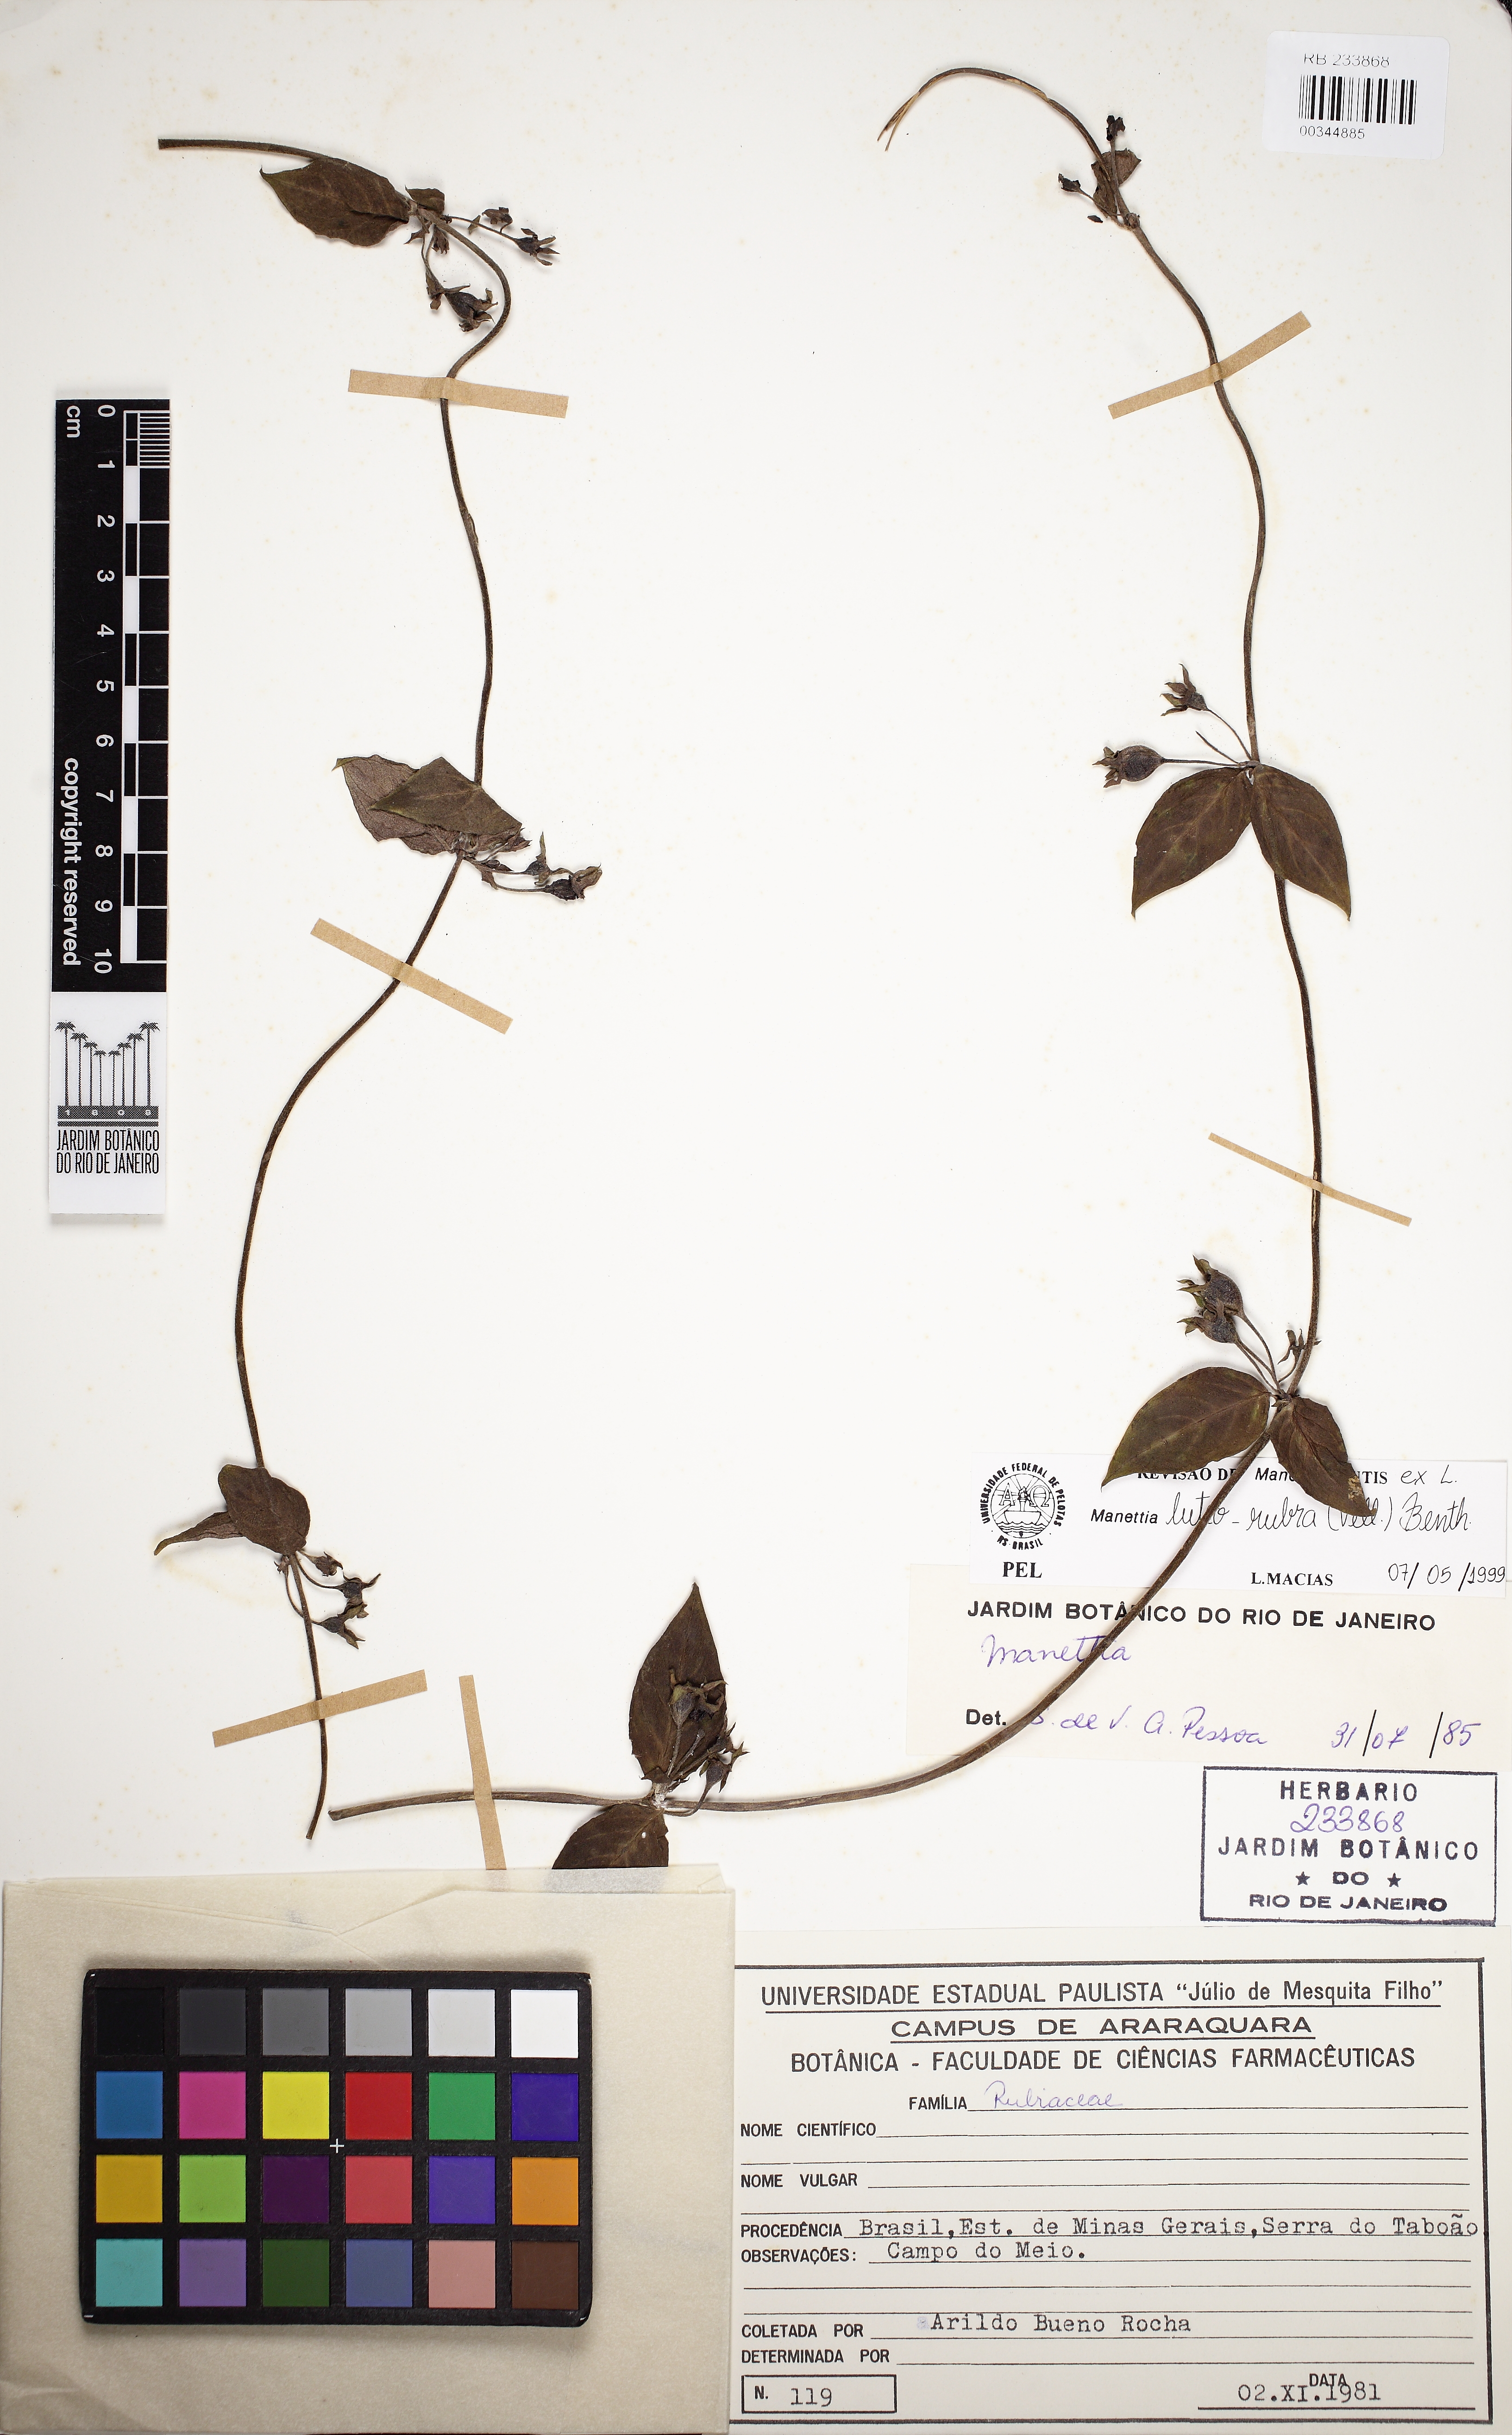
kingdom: Plantae
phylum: Tracheophyta
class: Magnoliopsida
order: Gentianales
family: Rubiaceae
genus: Manettia
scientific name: Manettia luteorubra
